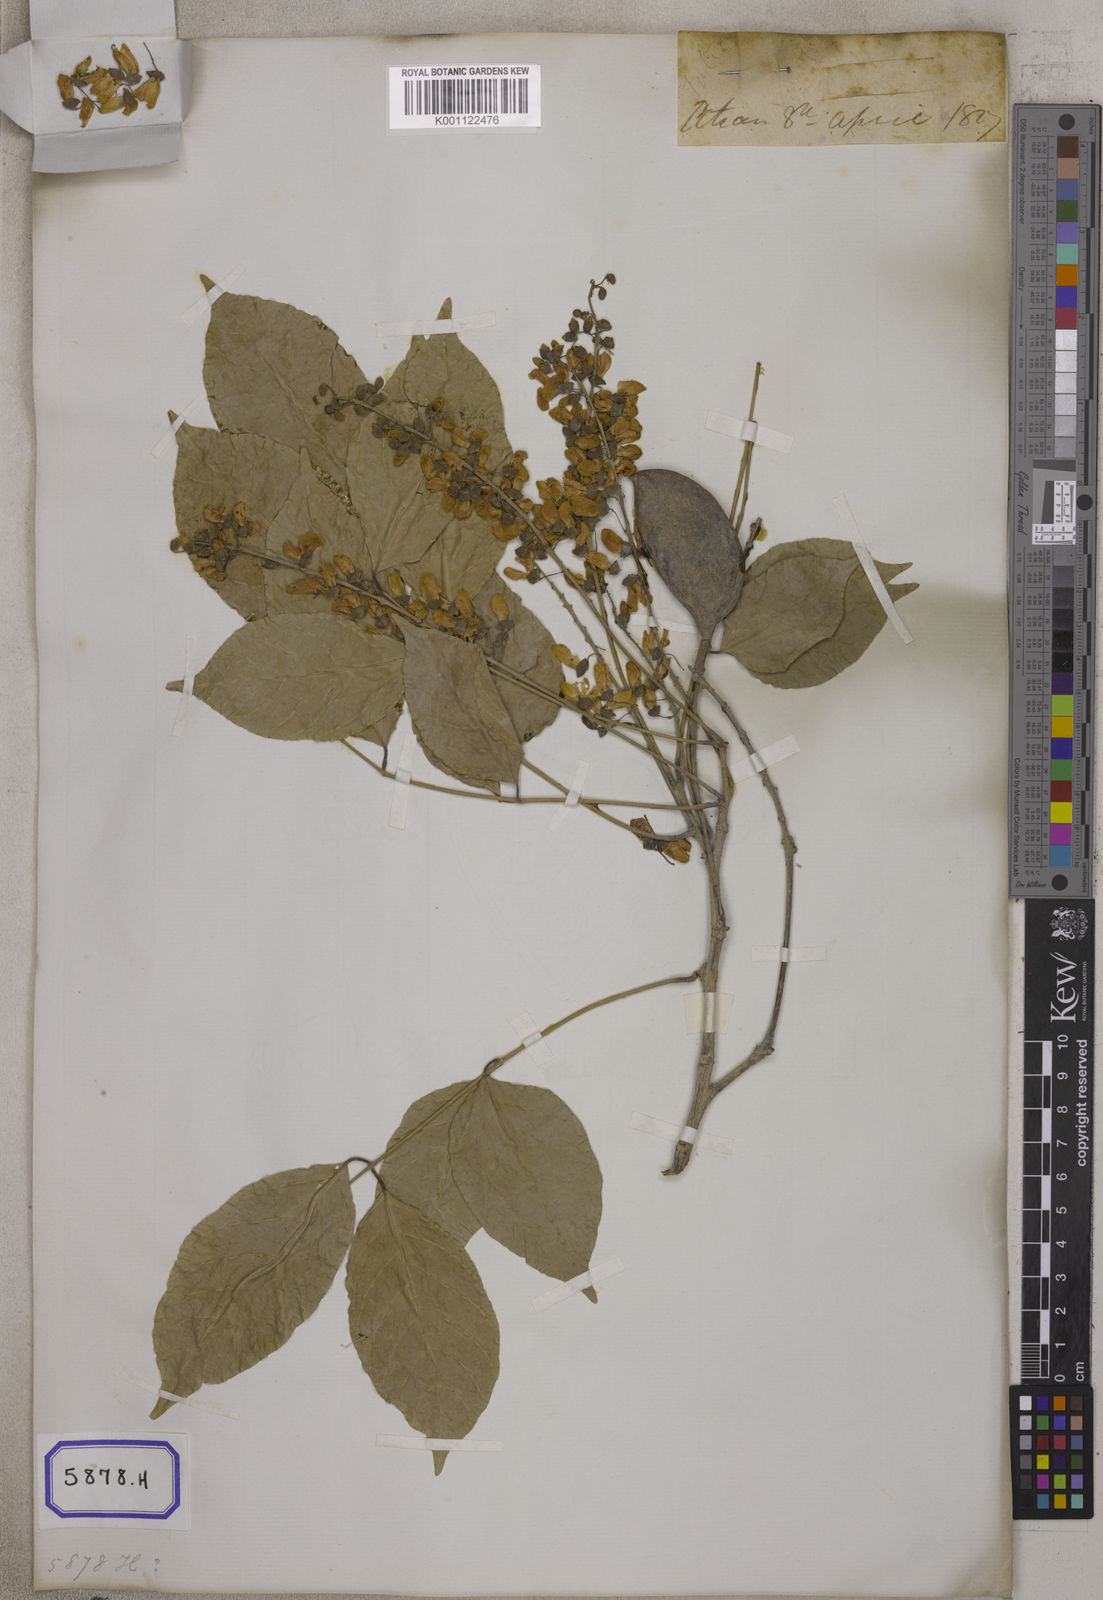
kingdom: Plantae
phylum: Tracheophyta
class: Magnoliopsida
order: Fabales
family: Fabaceae
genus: Pongamia
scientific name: Pongamia pinnata
